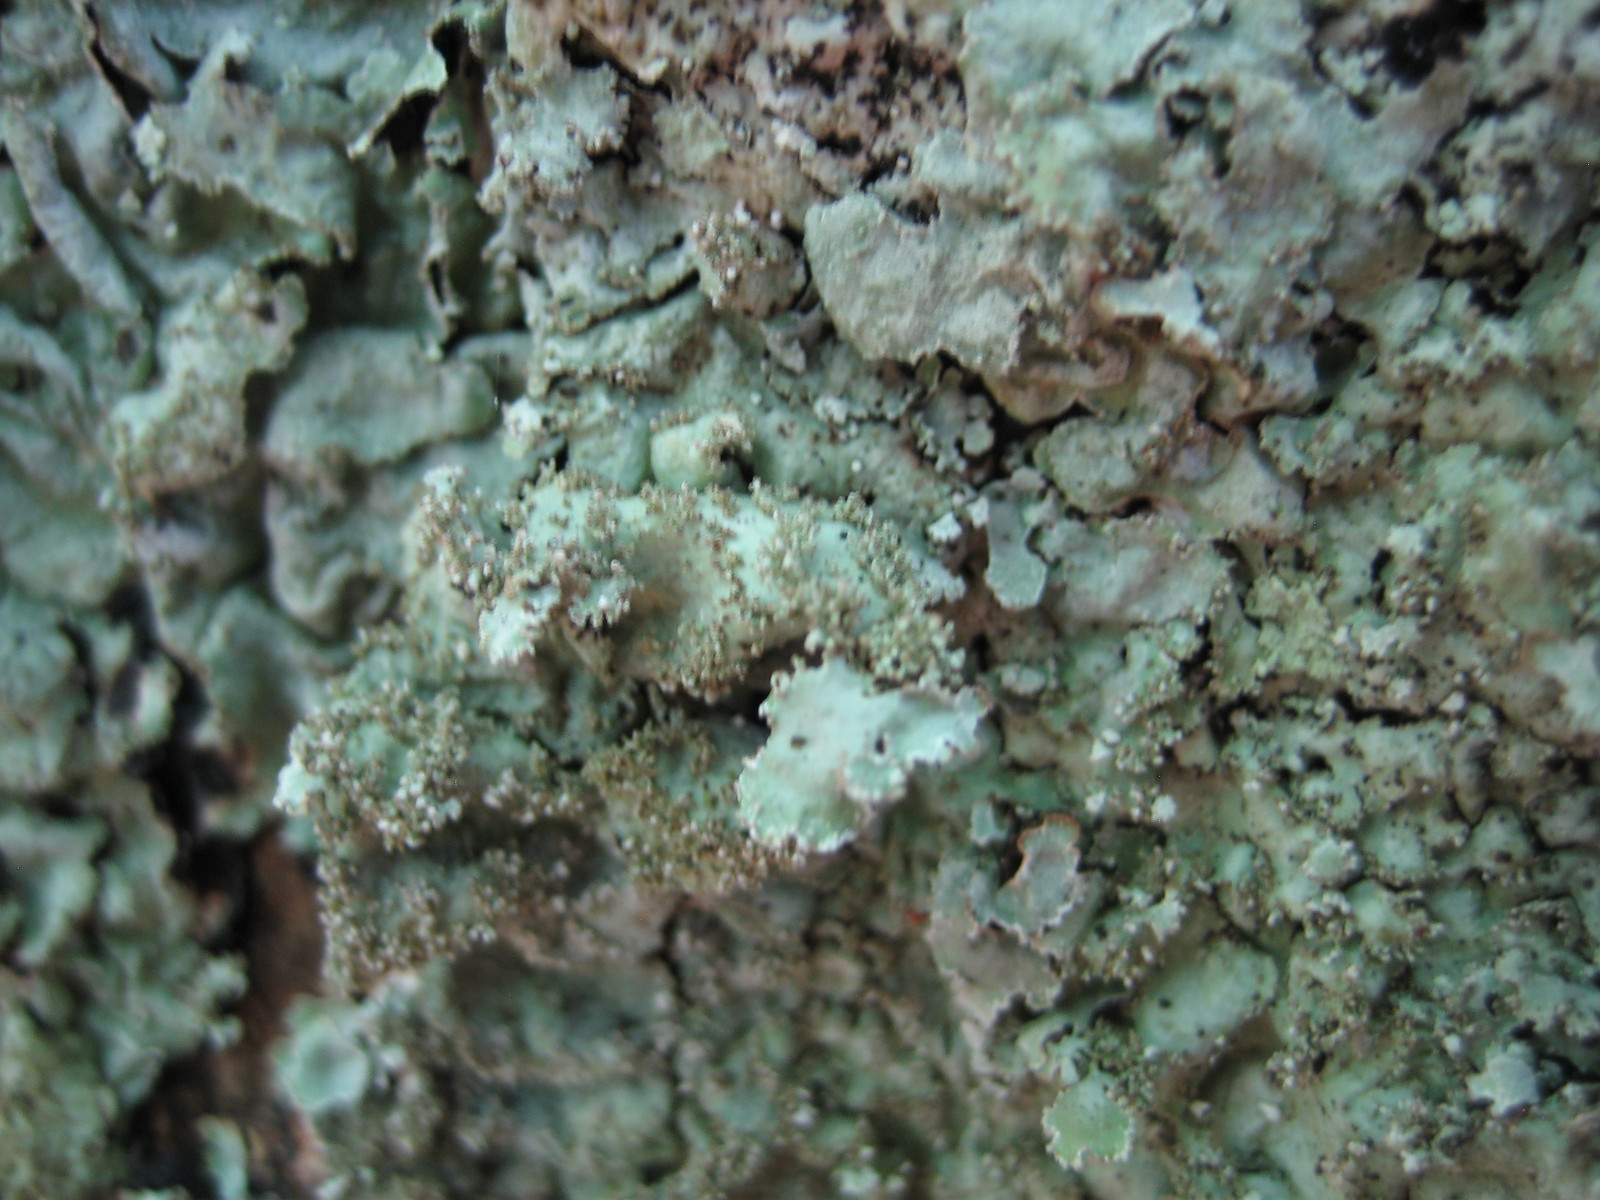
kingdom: Fungi
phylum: Ascomycota
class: Lecanoromycetes
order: Lecanorales
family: Parmeliaceae
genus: Parmelia
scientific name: Parmelia
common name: farve-skållav
